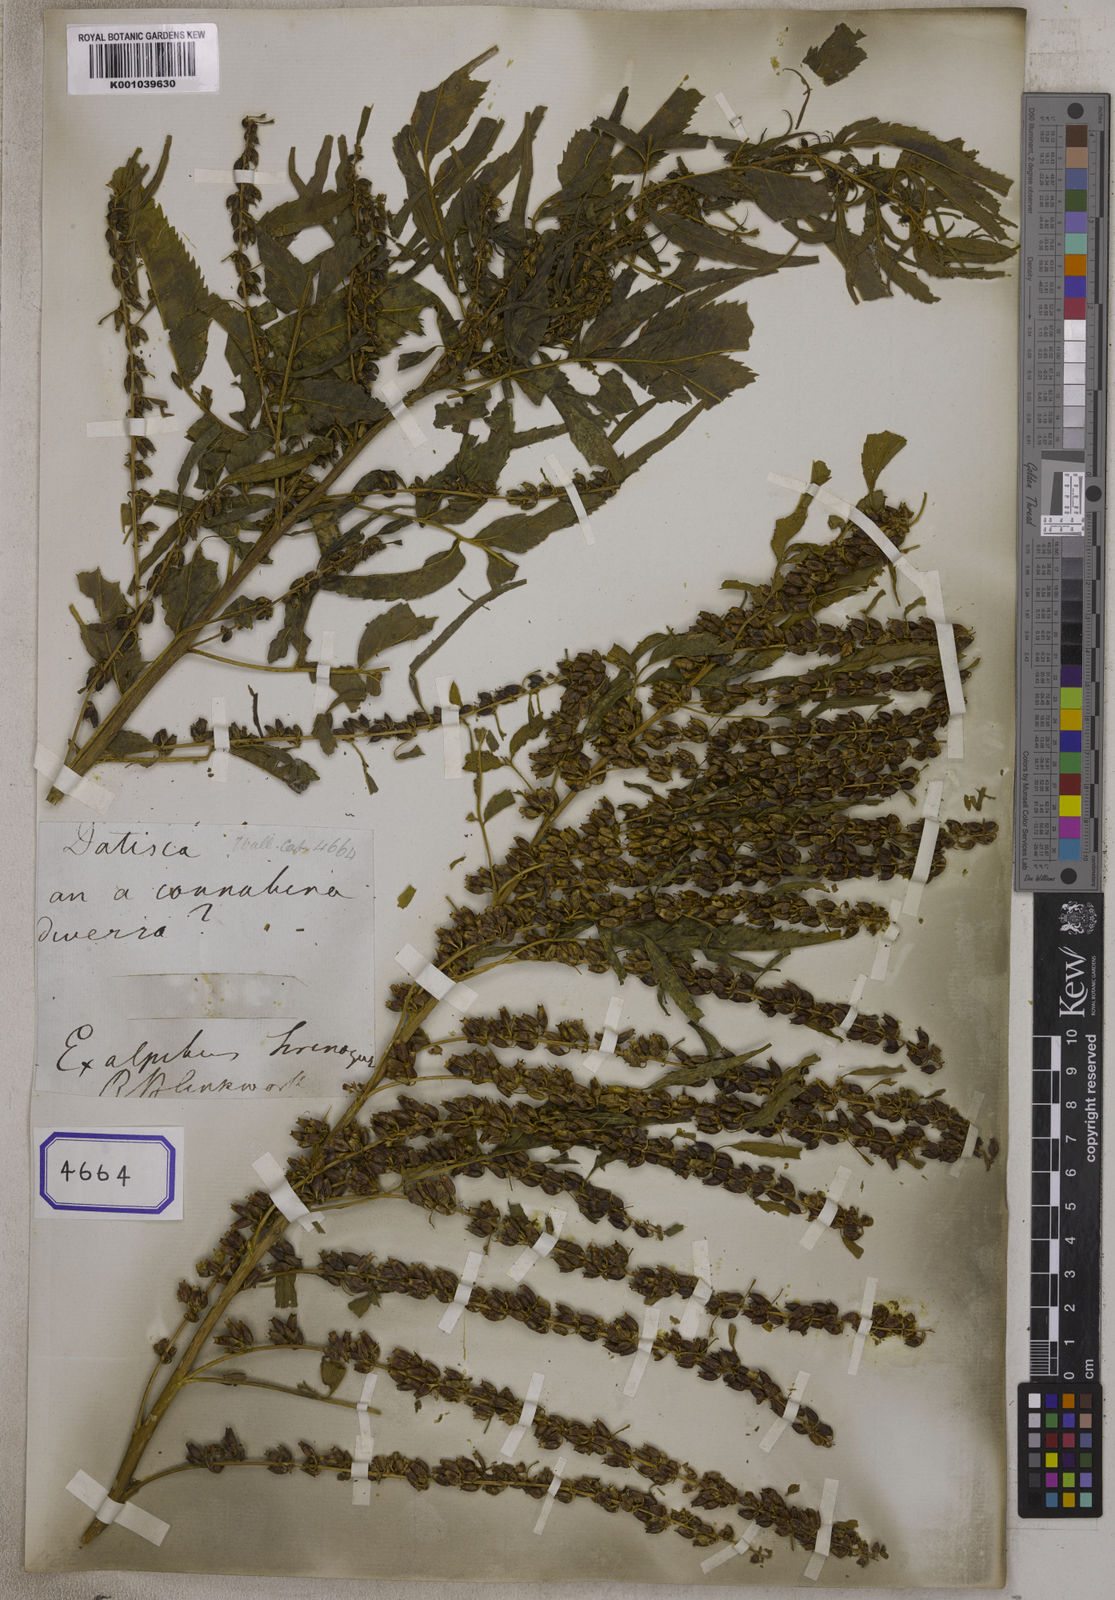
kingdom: Plantae
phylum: Tracheophyta
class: Magnoliopsida
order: Cucurbitales
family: Datiscaceae
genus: Datisca
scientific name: Datisca cannabina
